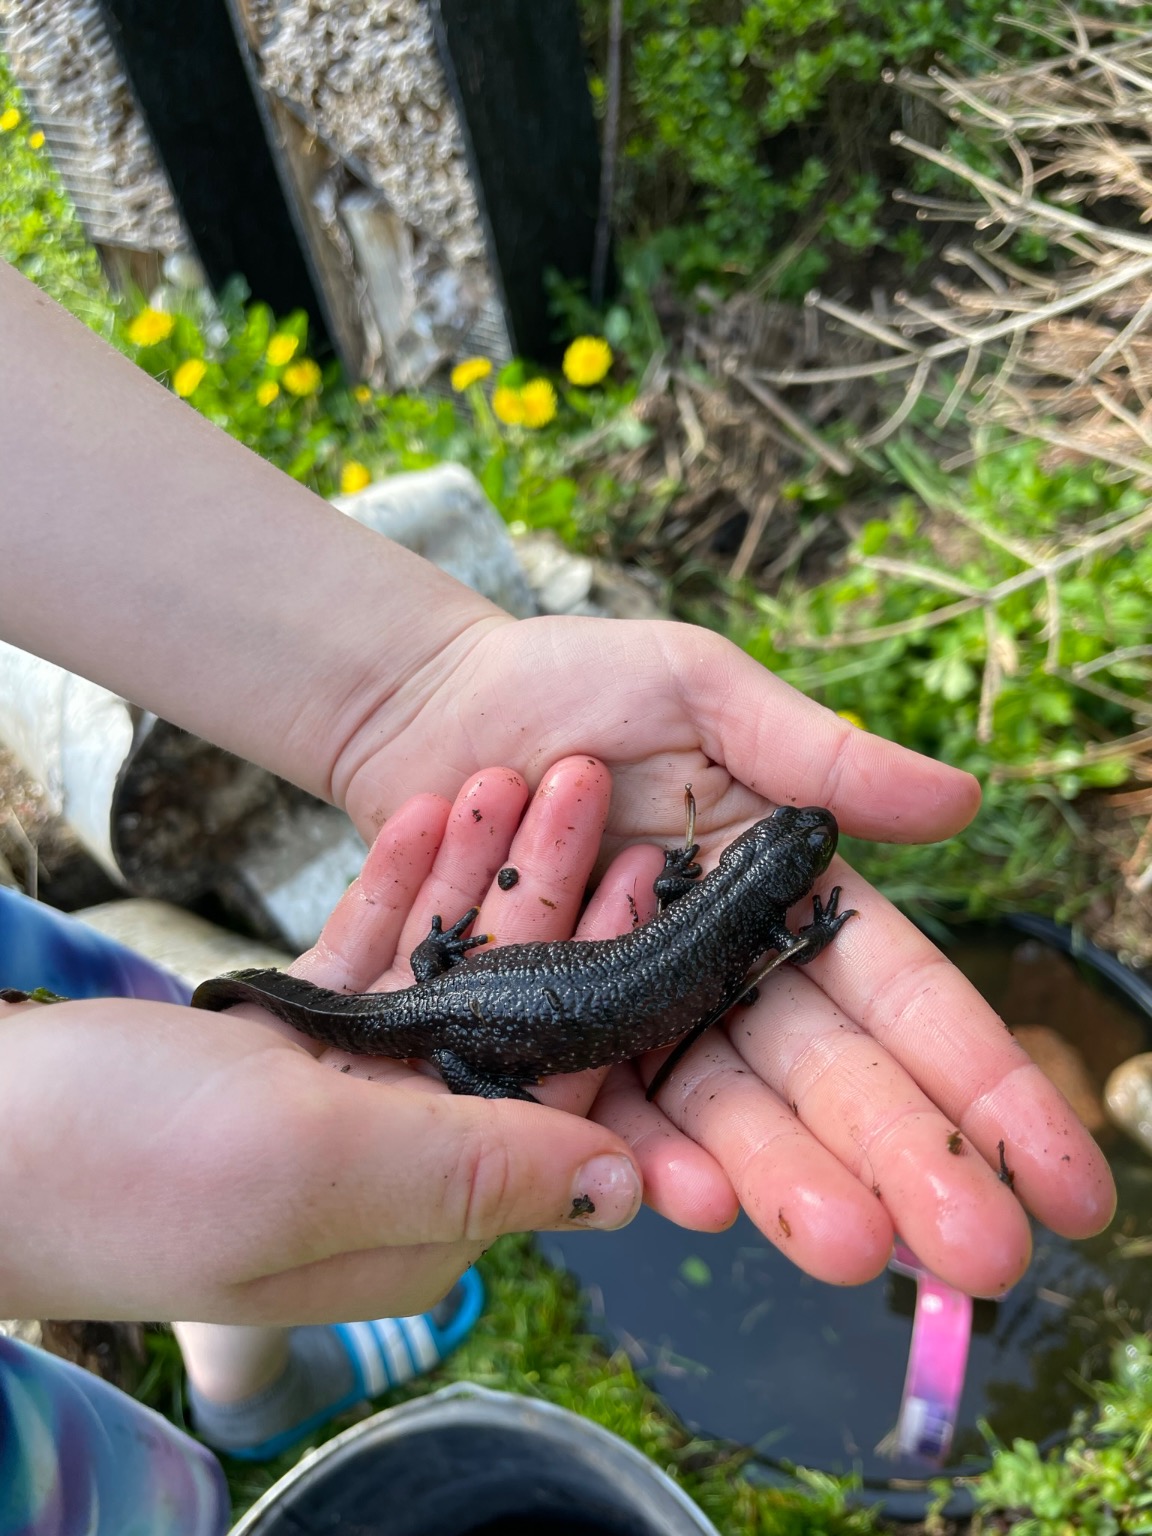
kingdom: Animalia
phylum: Chordata
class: Amphibia
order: Caudata
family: Salamandridae
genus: Triturus
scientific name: Triturus cristatus
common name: Stor vandsalamander
